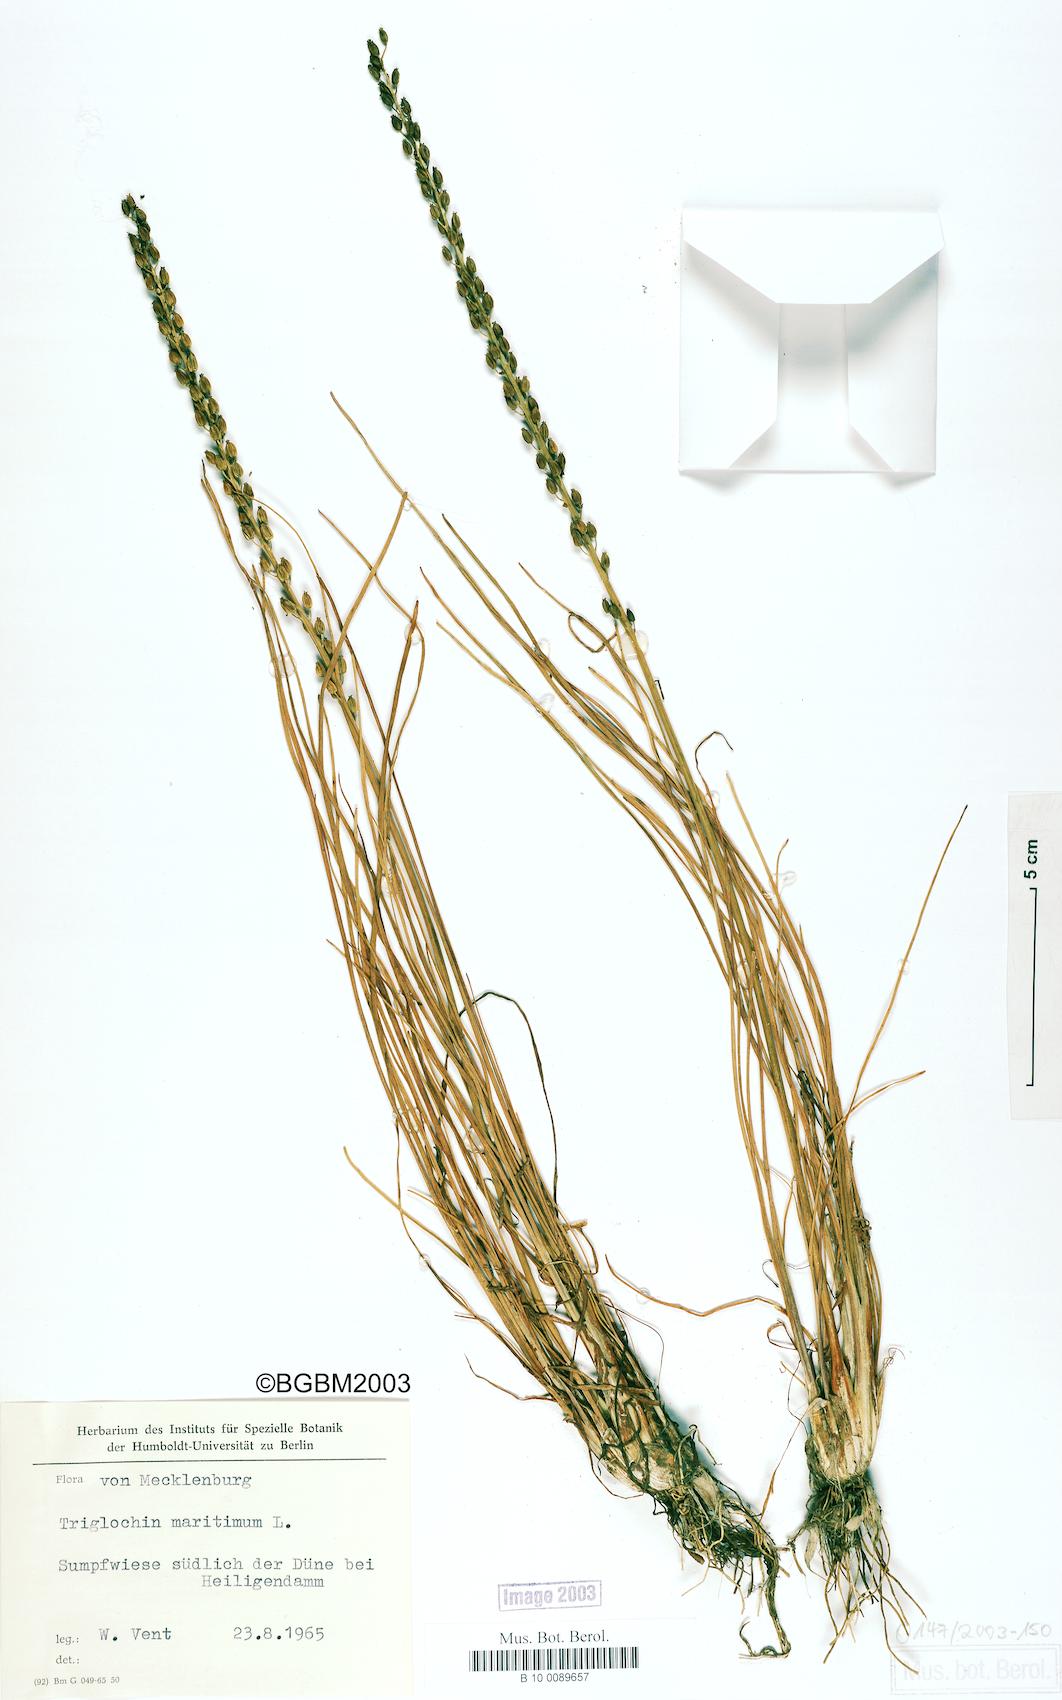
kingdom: Plantae
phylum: Tracheophyta
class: Liliopsida
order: Alismatales
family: Juncaginaceae
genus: Triglochin
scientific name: Triglochin maritima
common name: Sea arrowgrass
